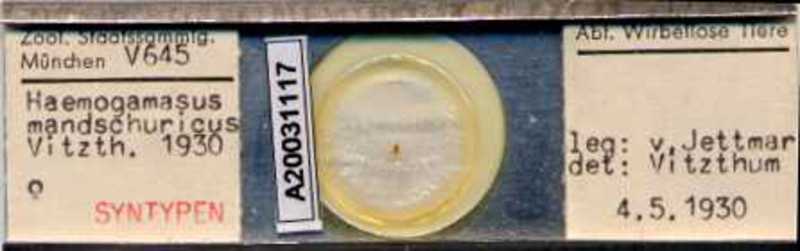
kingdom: Animalia
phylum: Arthropoda
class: Arachnida
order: Mesostigmata
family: Parasitidae
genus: Haemogamasus
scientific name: Haemogamasus mandshuricus
